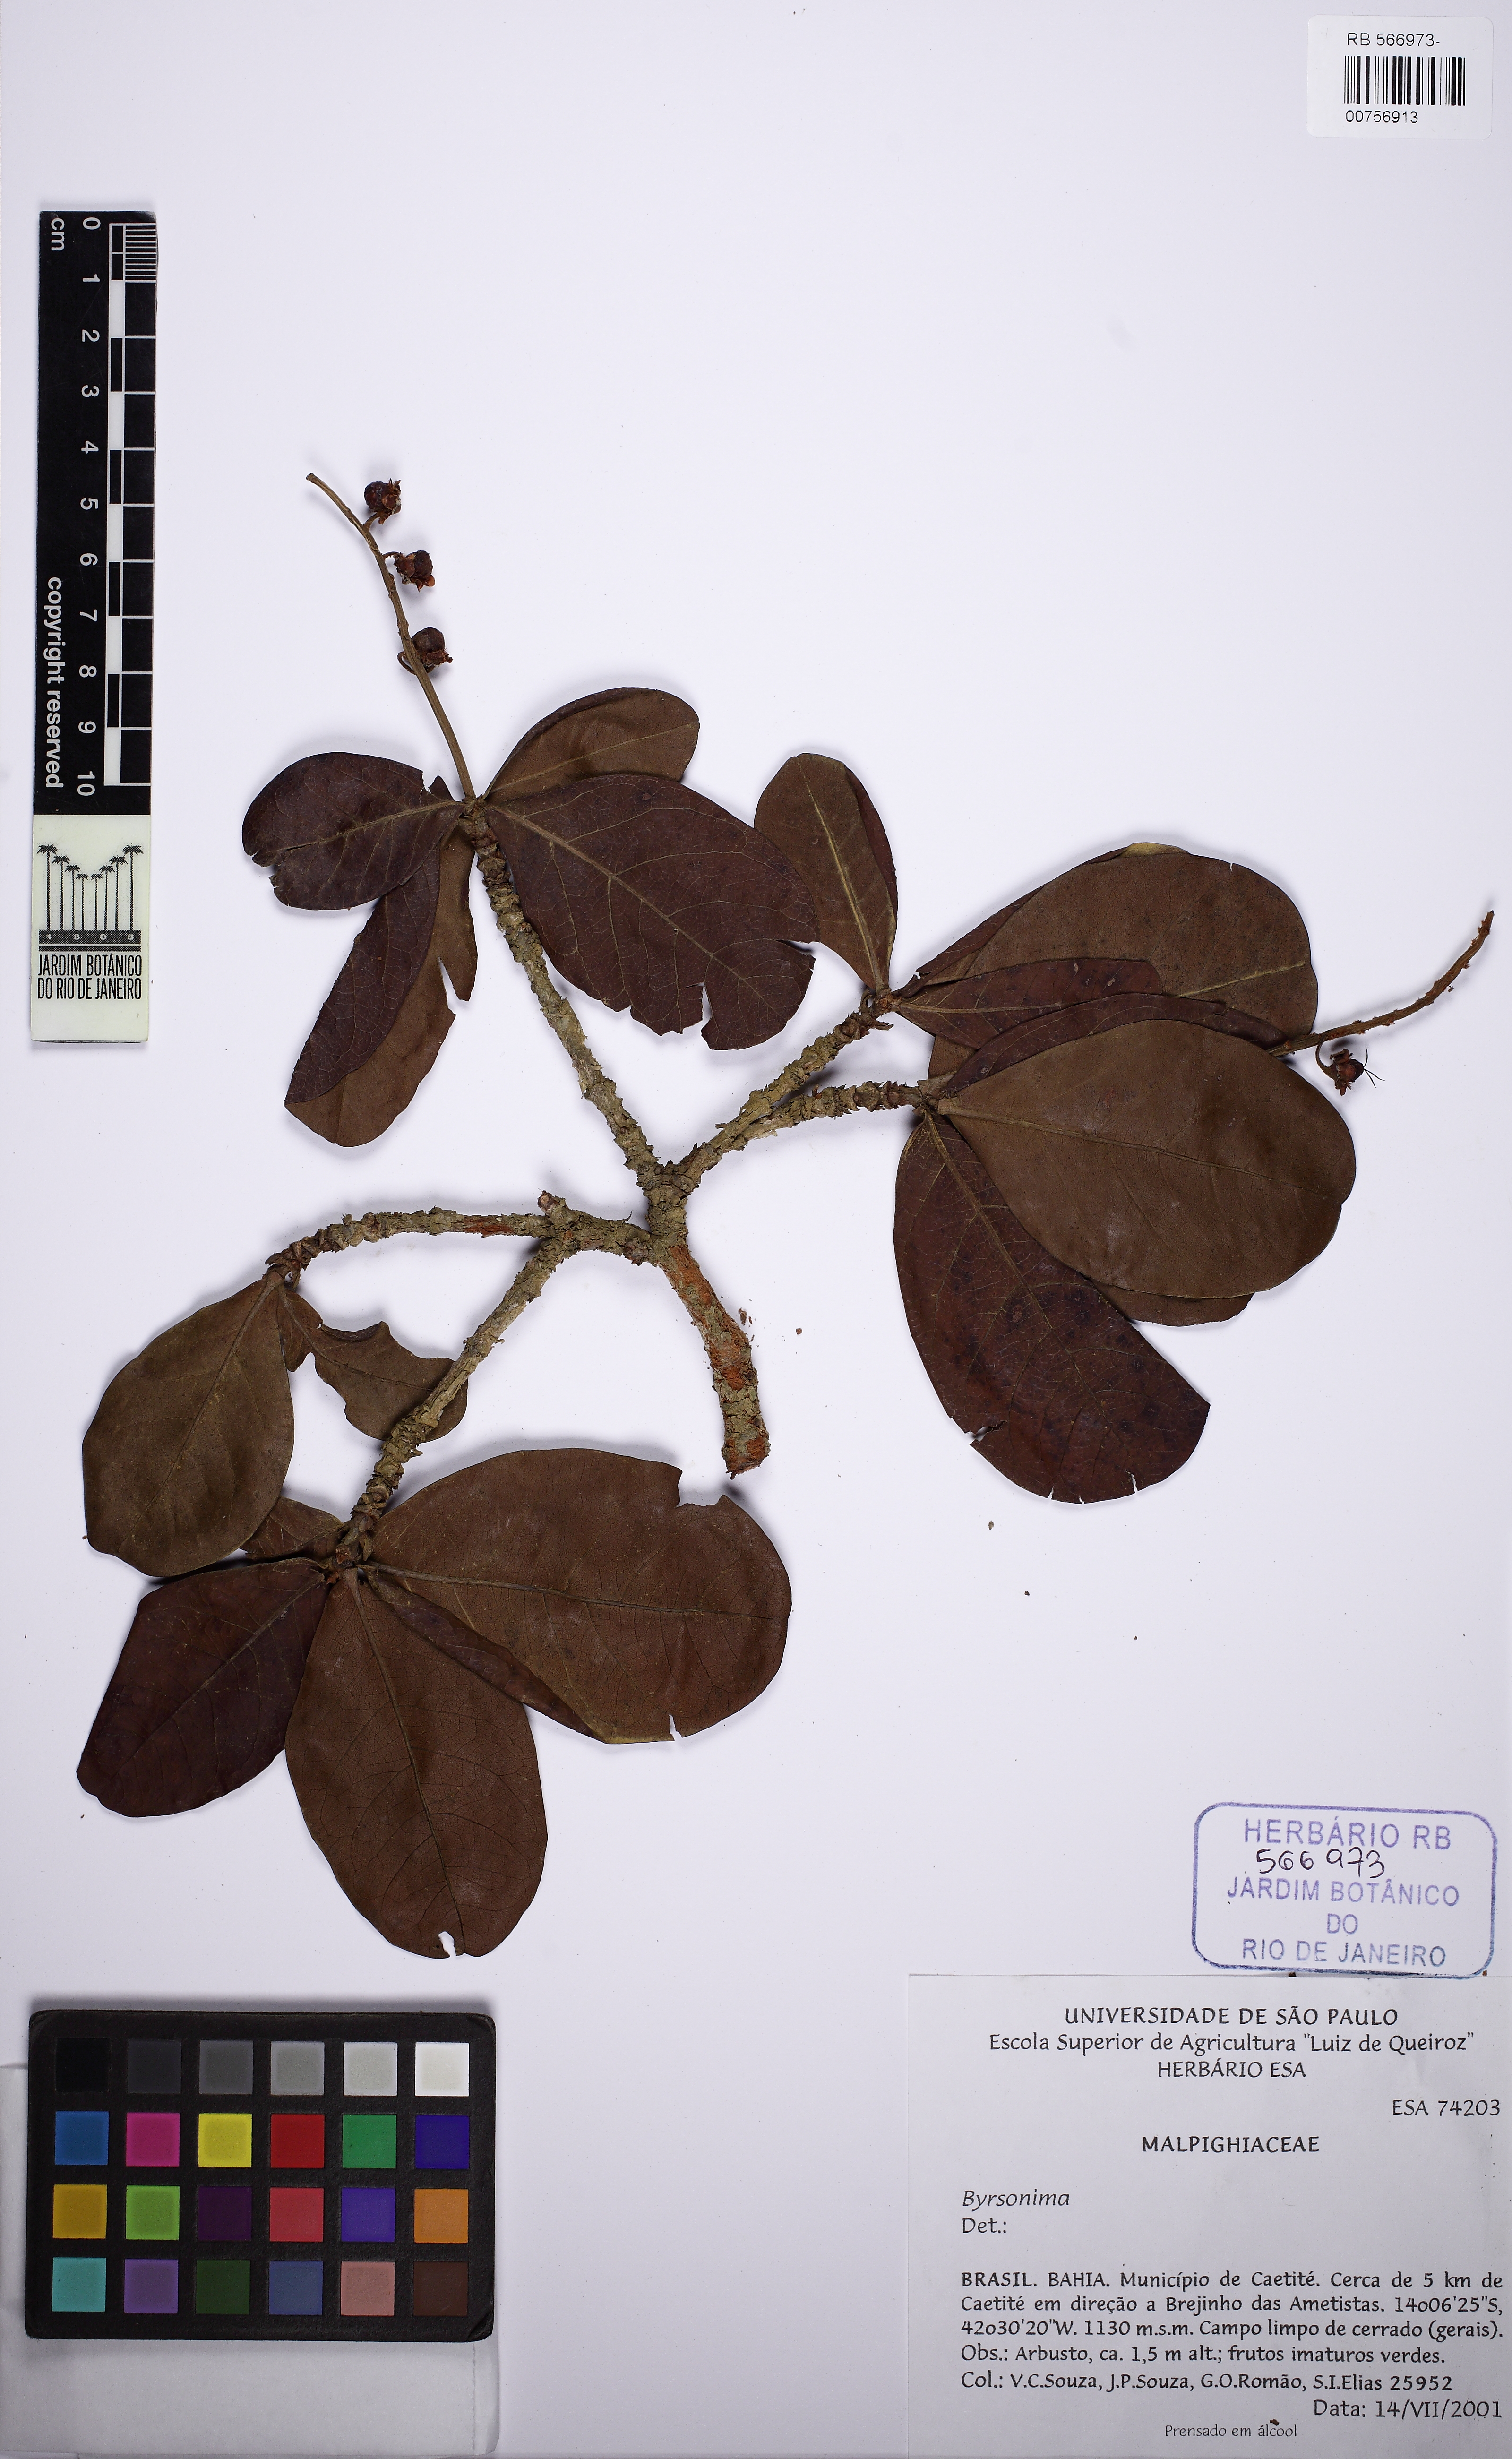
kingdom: Plantae
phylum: Tracheophyta
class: Magnoliopsida
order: Malpighiales
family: Malpighiaceae
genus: Byrsonima
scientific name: Byrsonima
